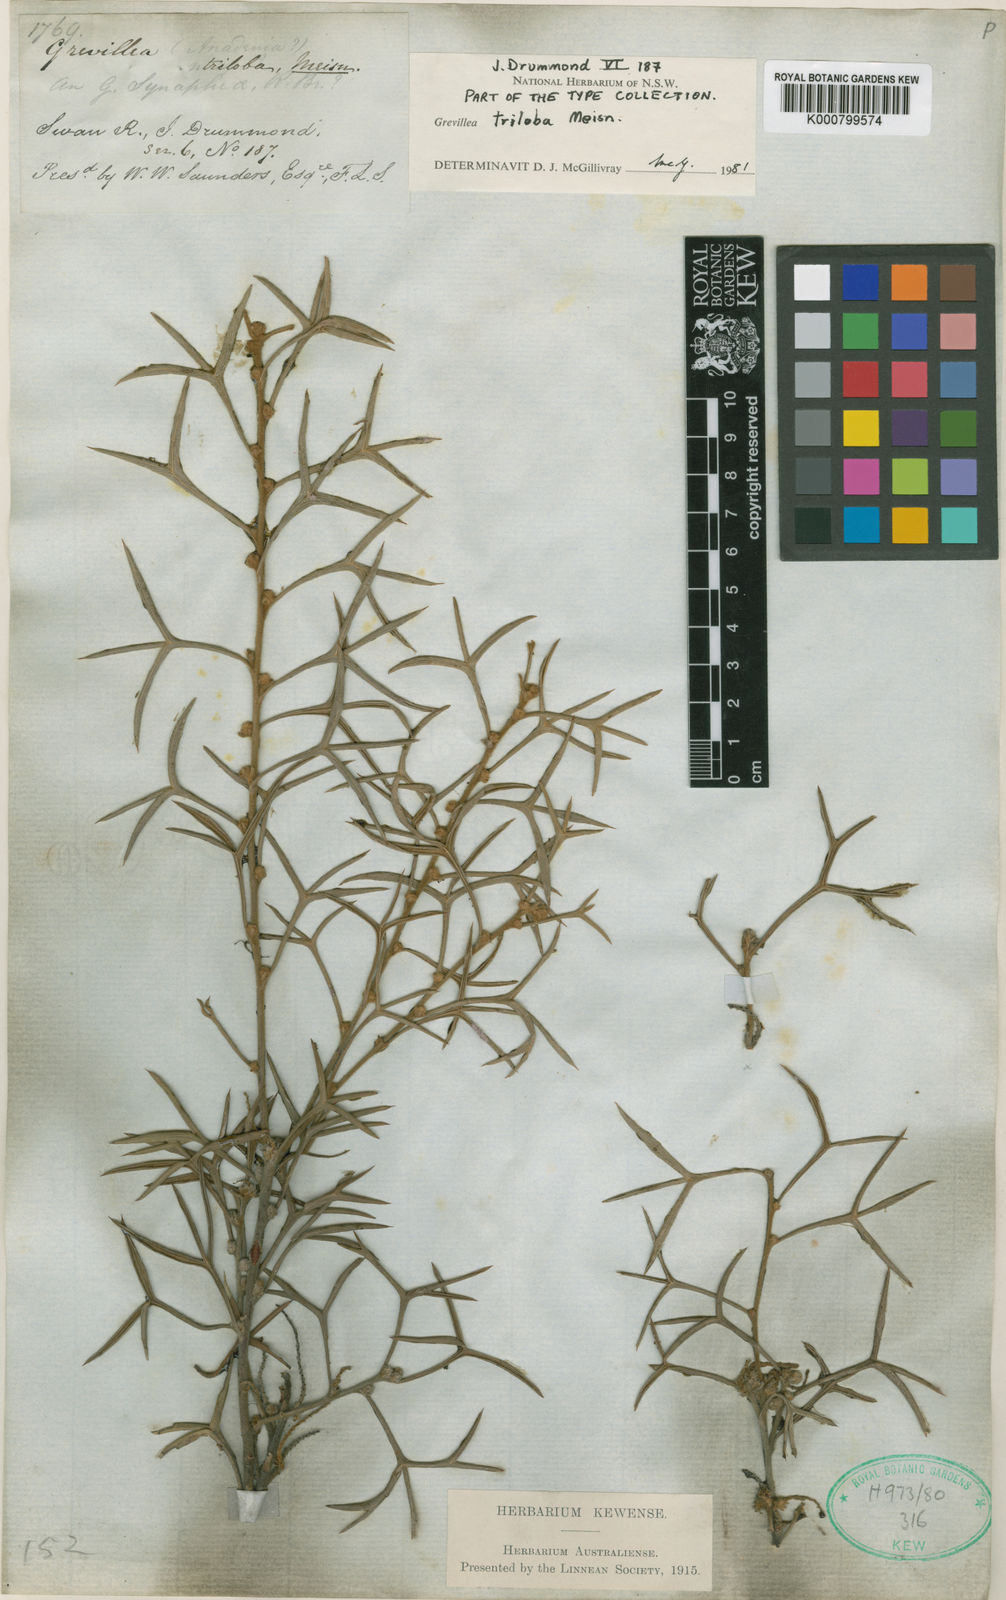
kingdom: Plantae
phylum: Tracheophyta
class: Magnoliopsida
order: Proteales
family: Proteaceae
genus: Grevillea
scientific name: Grevillea triloba
